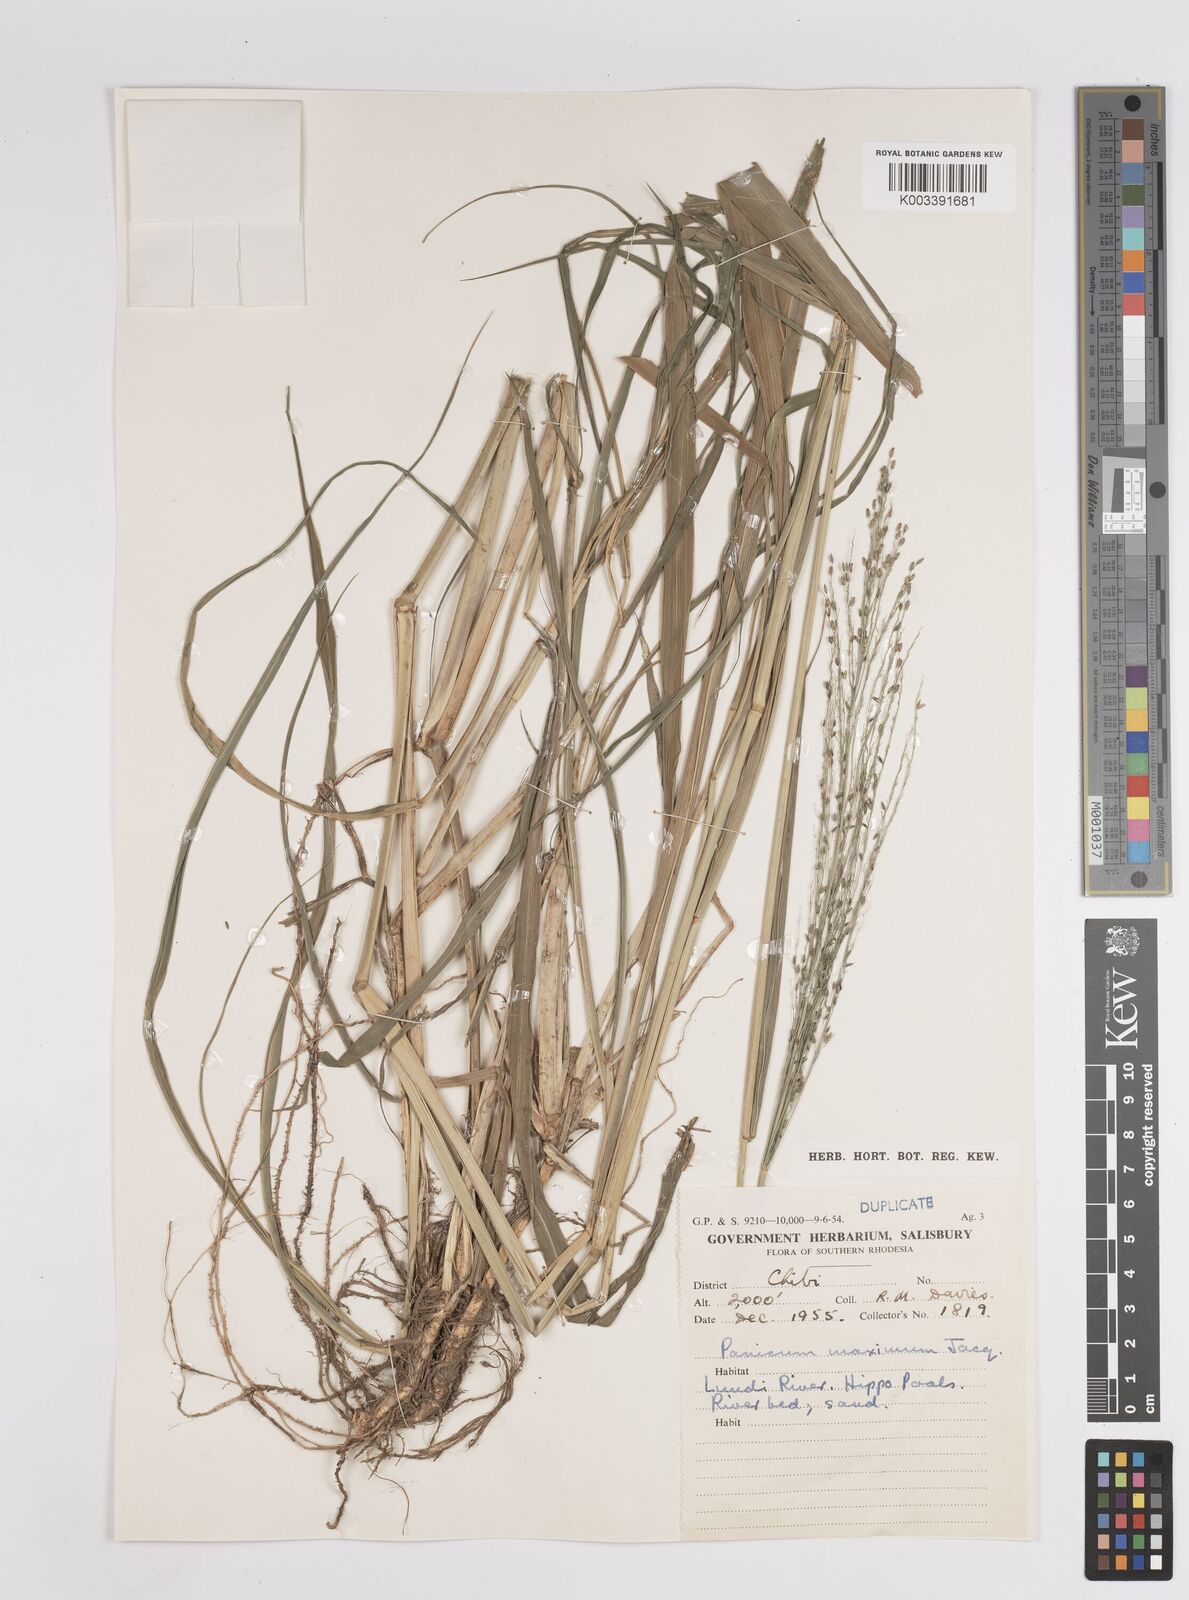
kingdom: Plantae
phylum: Tracheophyta
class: Liliopsida
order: Poales
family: Poaceae
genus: Megathyrsus
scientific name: Megathyrsus maximus
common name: Guineagrass
